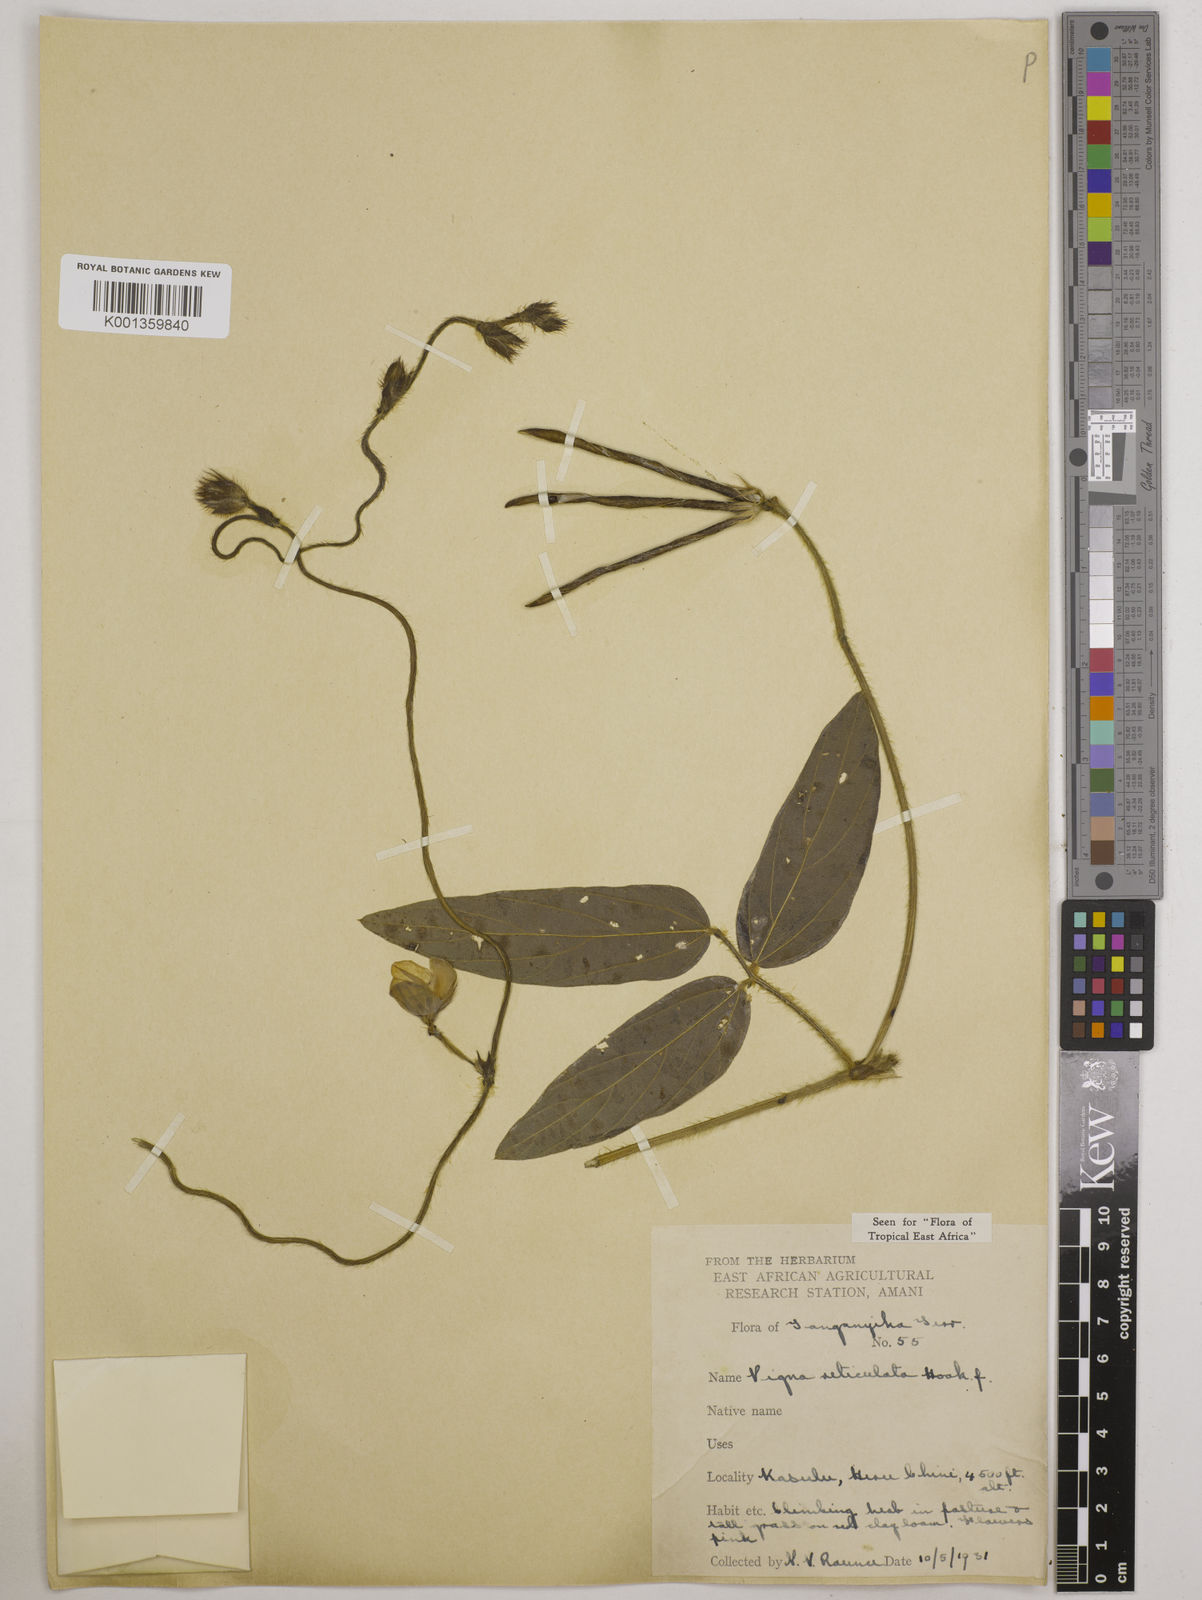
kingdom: Plantae
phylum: Tracheophyta
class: Magnoliopsida
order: Fabales
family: Fabaceae
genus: Vigna
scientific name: Vigna reticulata
